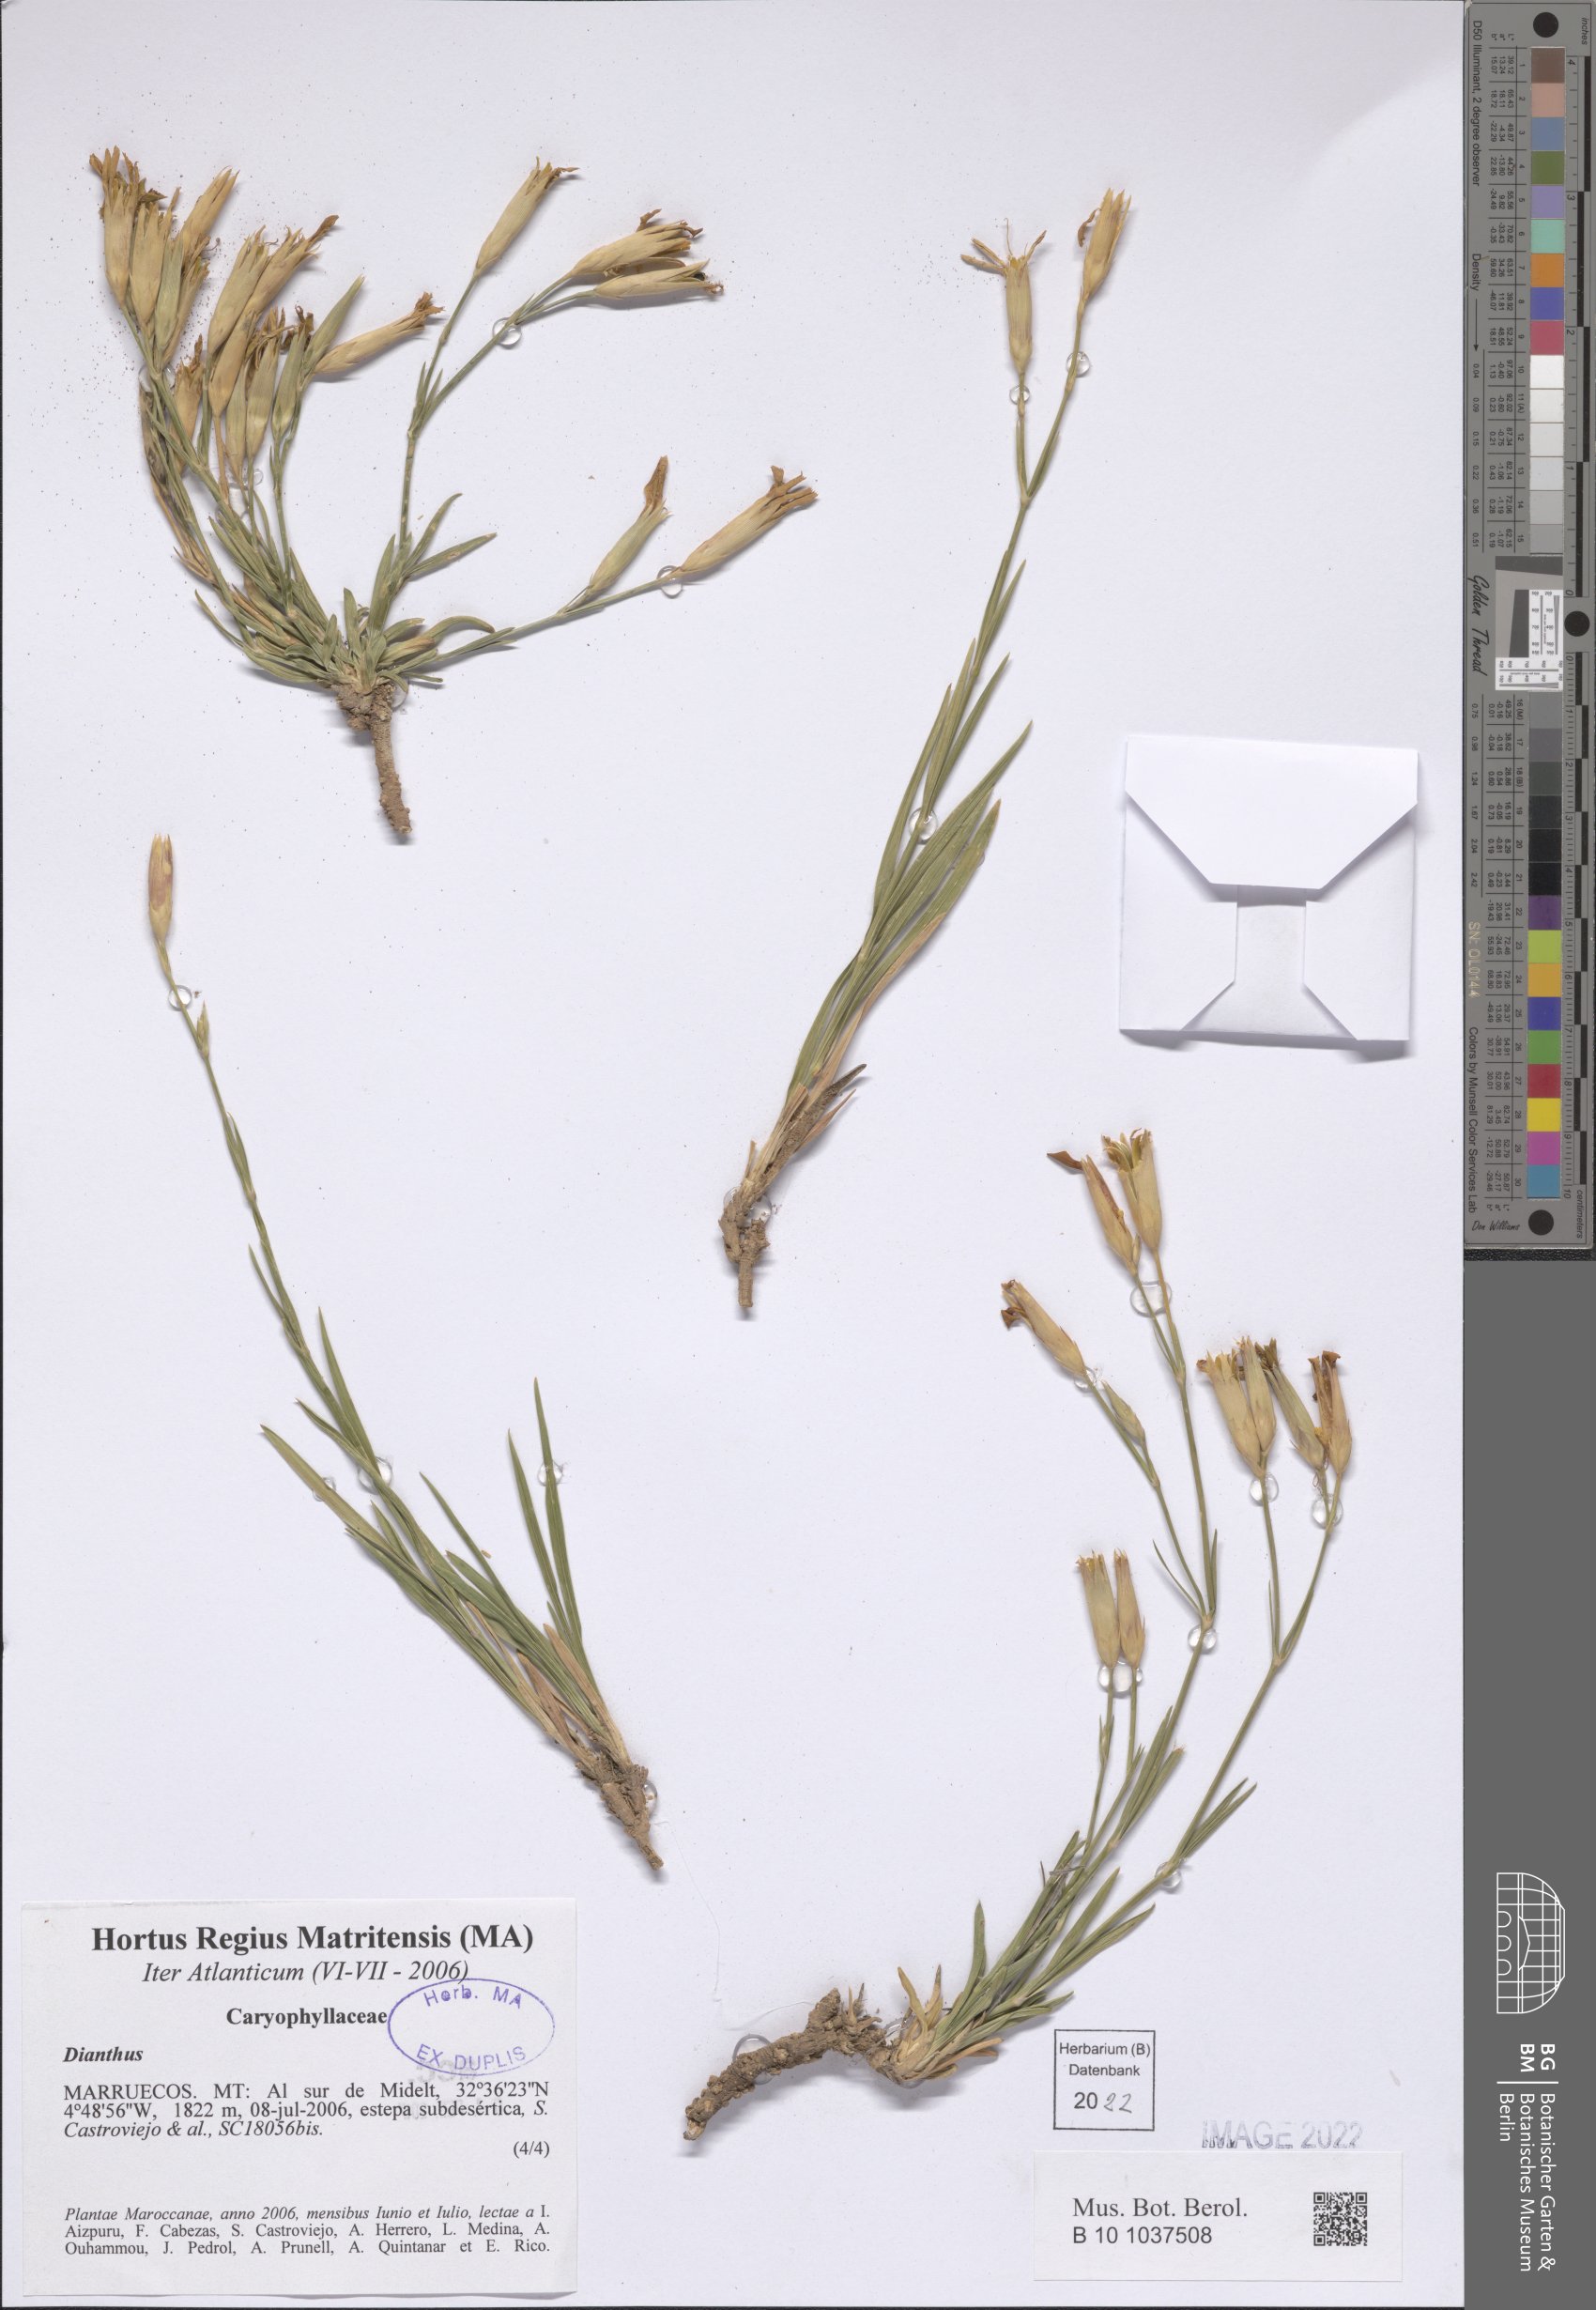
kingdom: Plantae
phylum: Tracheophyta
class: Magnoliopsida
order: Caryophyllales
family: Caryophyllaceae
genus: Dianthus
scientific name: Dianthus
